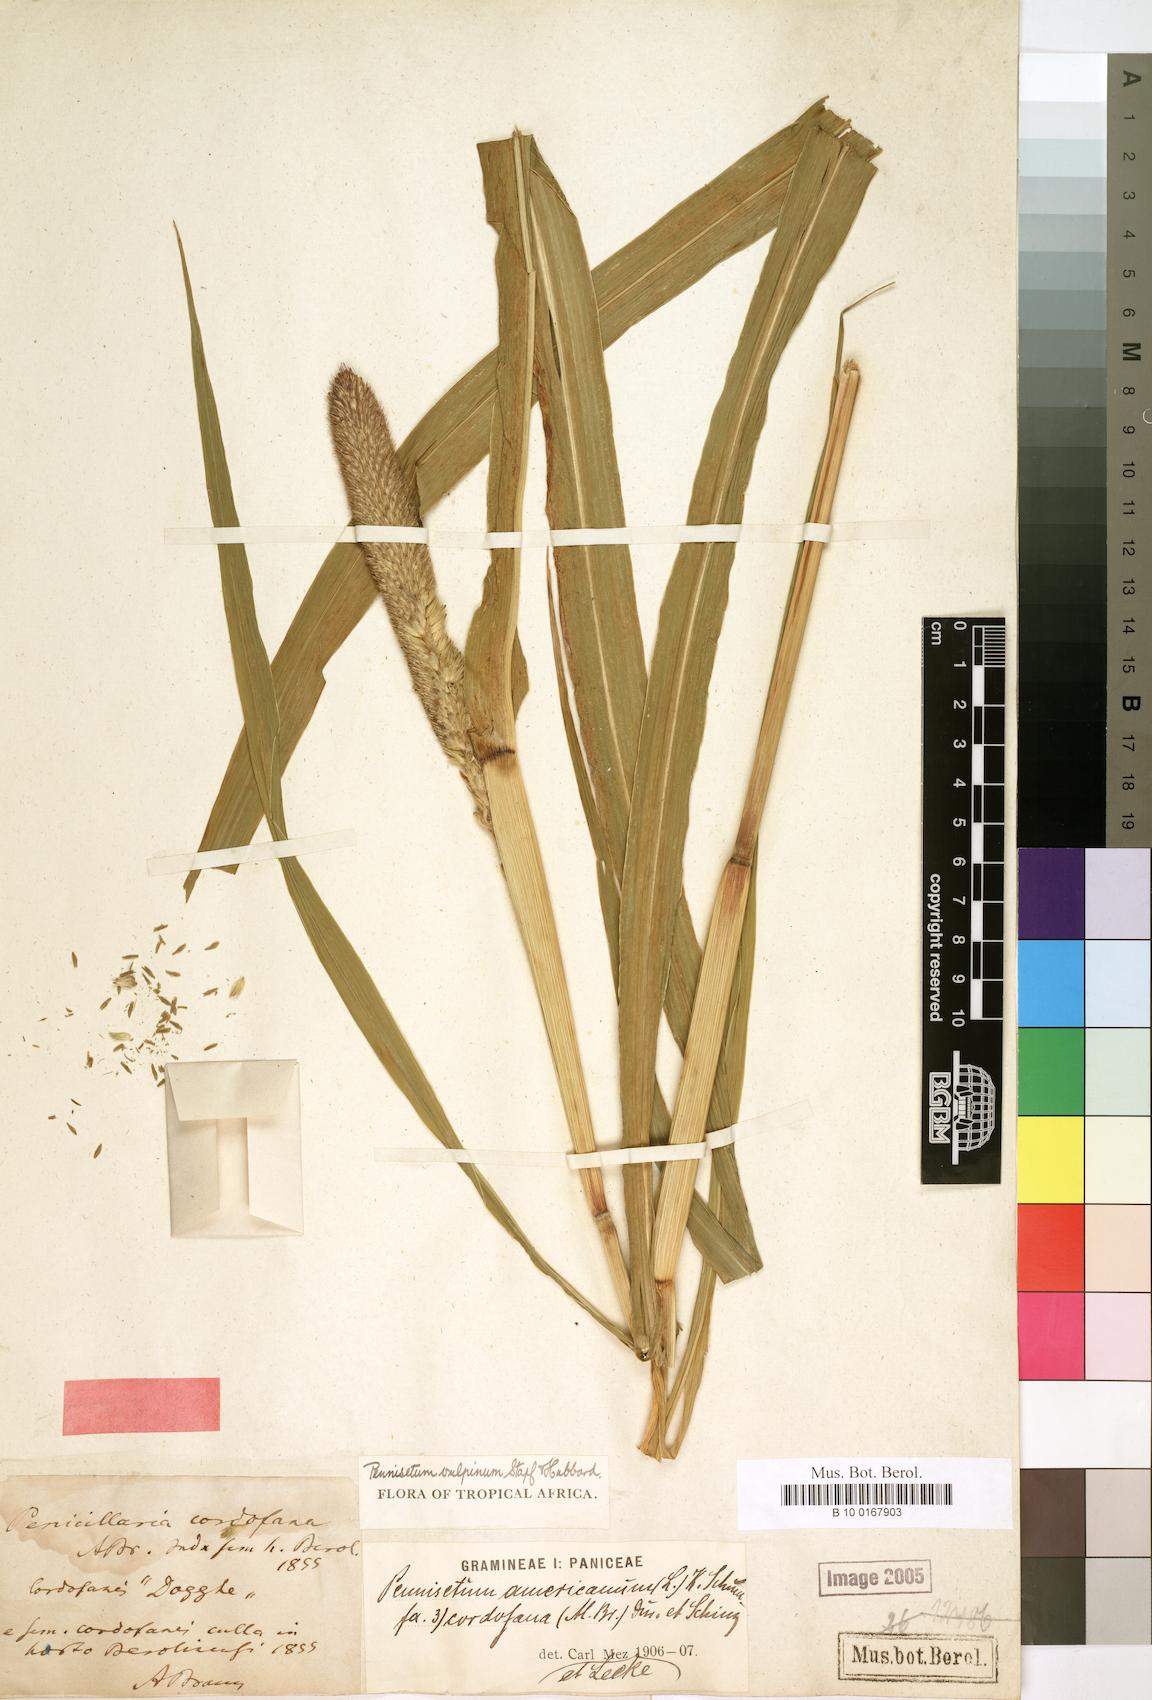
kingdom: Plantae
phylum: Tracheophyta
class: Liliopsida
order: Poales
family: Poaceae
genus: Cenchrus
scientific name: Cenchrus sieberianus
